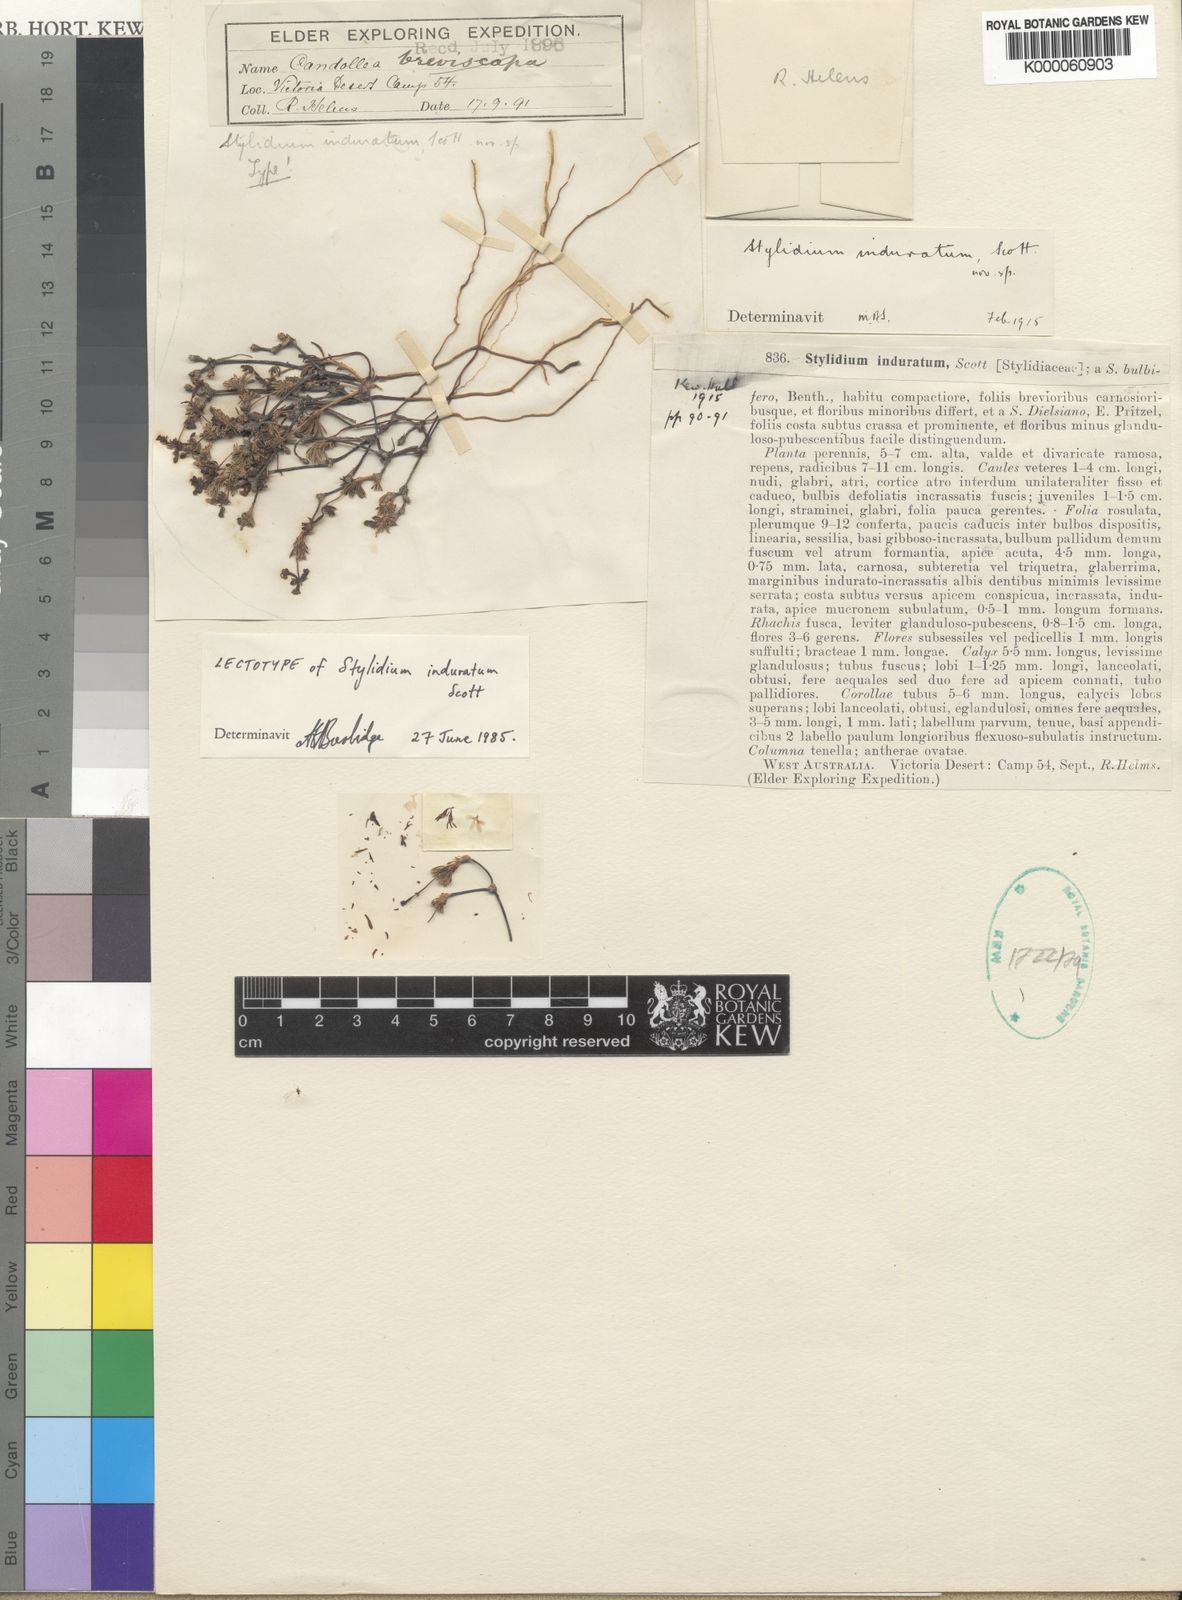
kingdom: Plantae
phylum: Tracheophyta
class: Magnoliopsida
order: Asterales
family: Stylidiaceae
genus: Stylidium
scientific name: Stylidium induratum
